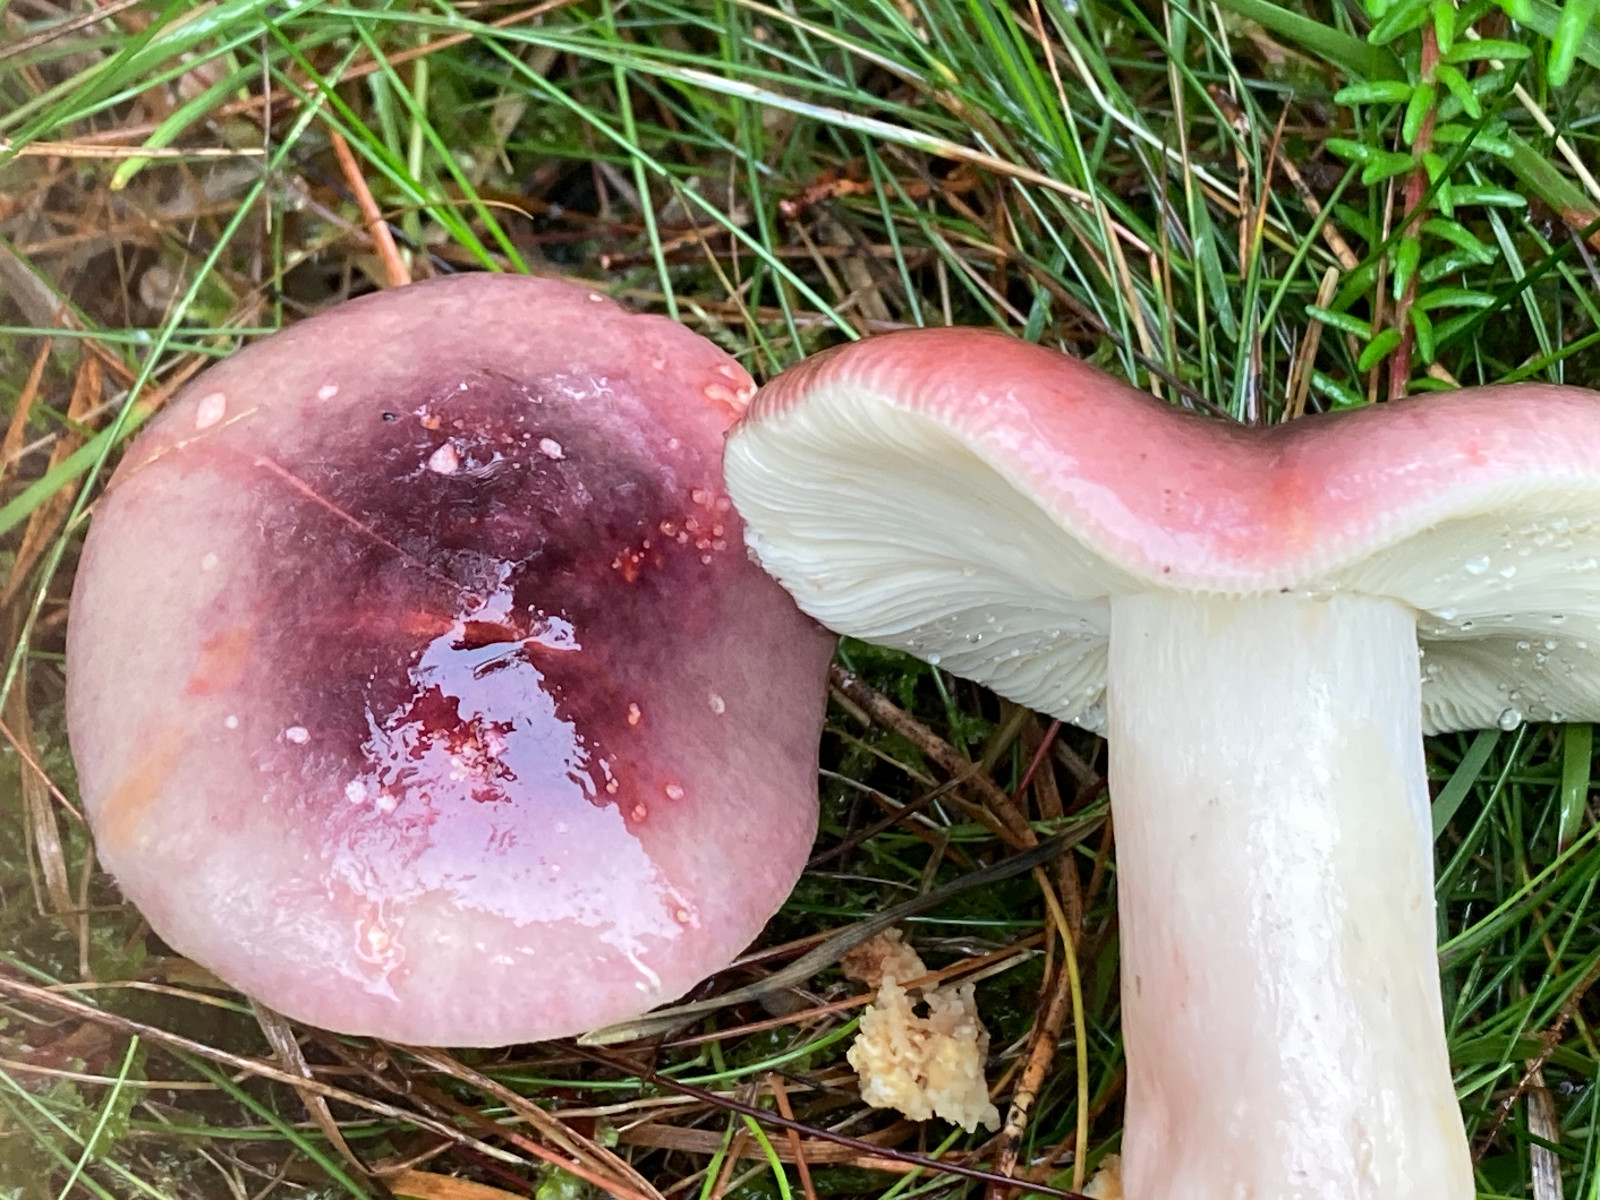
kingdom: Fungi
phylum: Basidiomycota
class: Agaricomycetes
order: Russulales
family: Russulaceae
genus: Russula
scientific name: Russula
